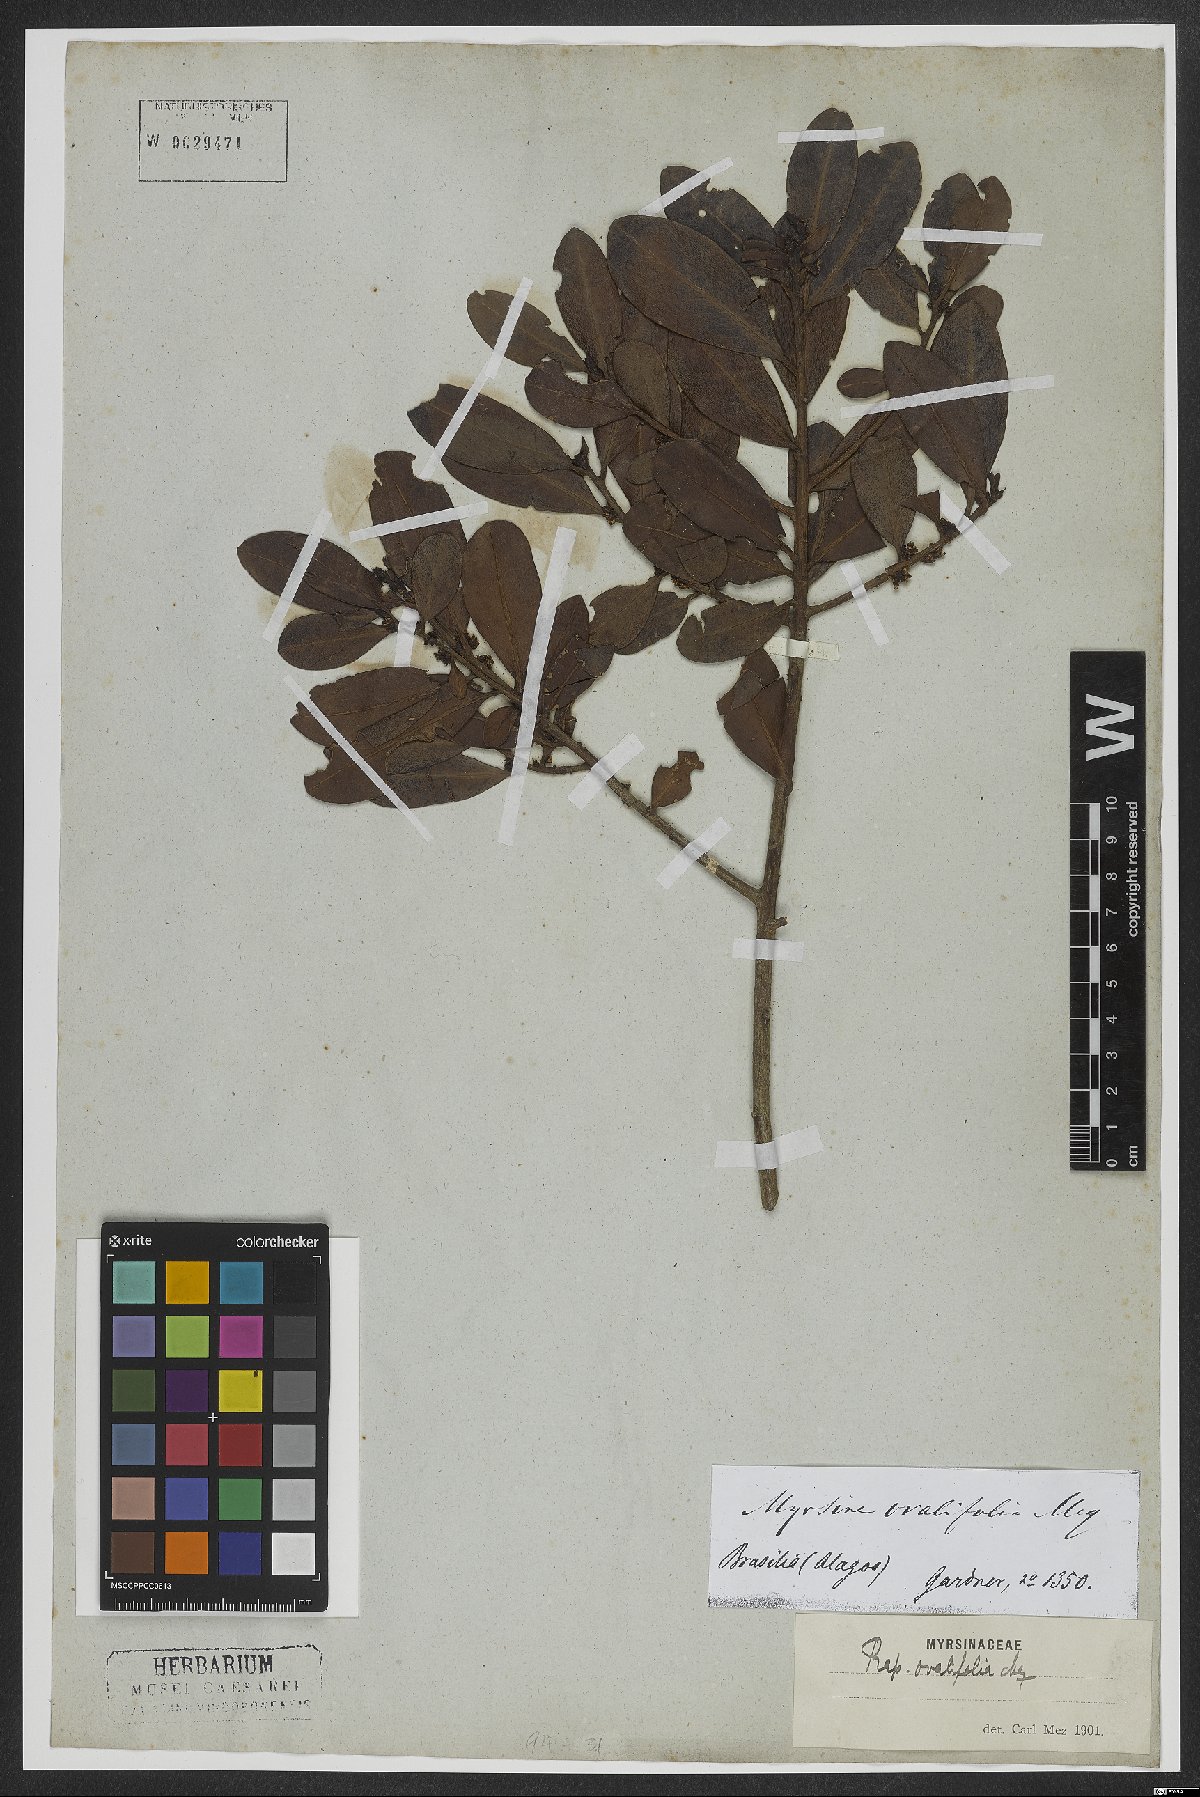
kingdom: Plantae
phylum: Tracheophyta
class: Magnoliopsida
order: Ericales
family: Primulaceae
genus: Myrsine
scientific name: Myrsine miquelii
